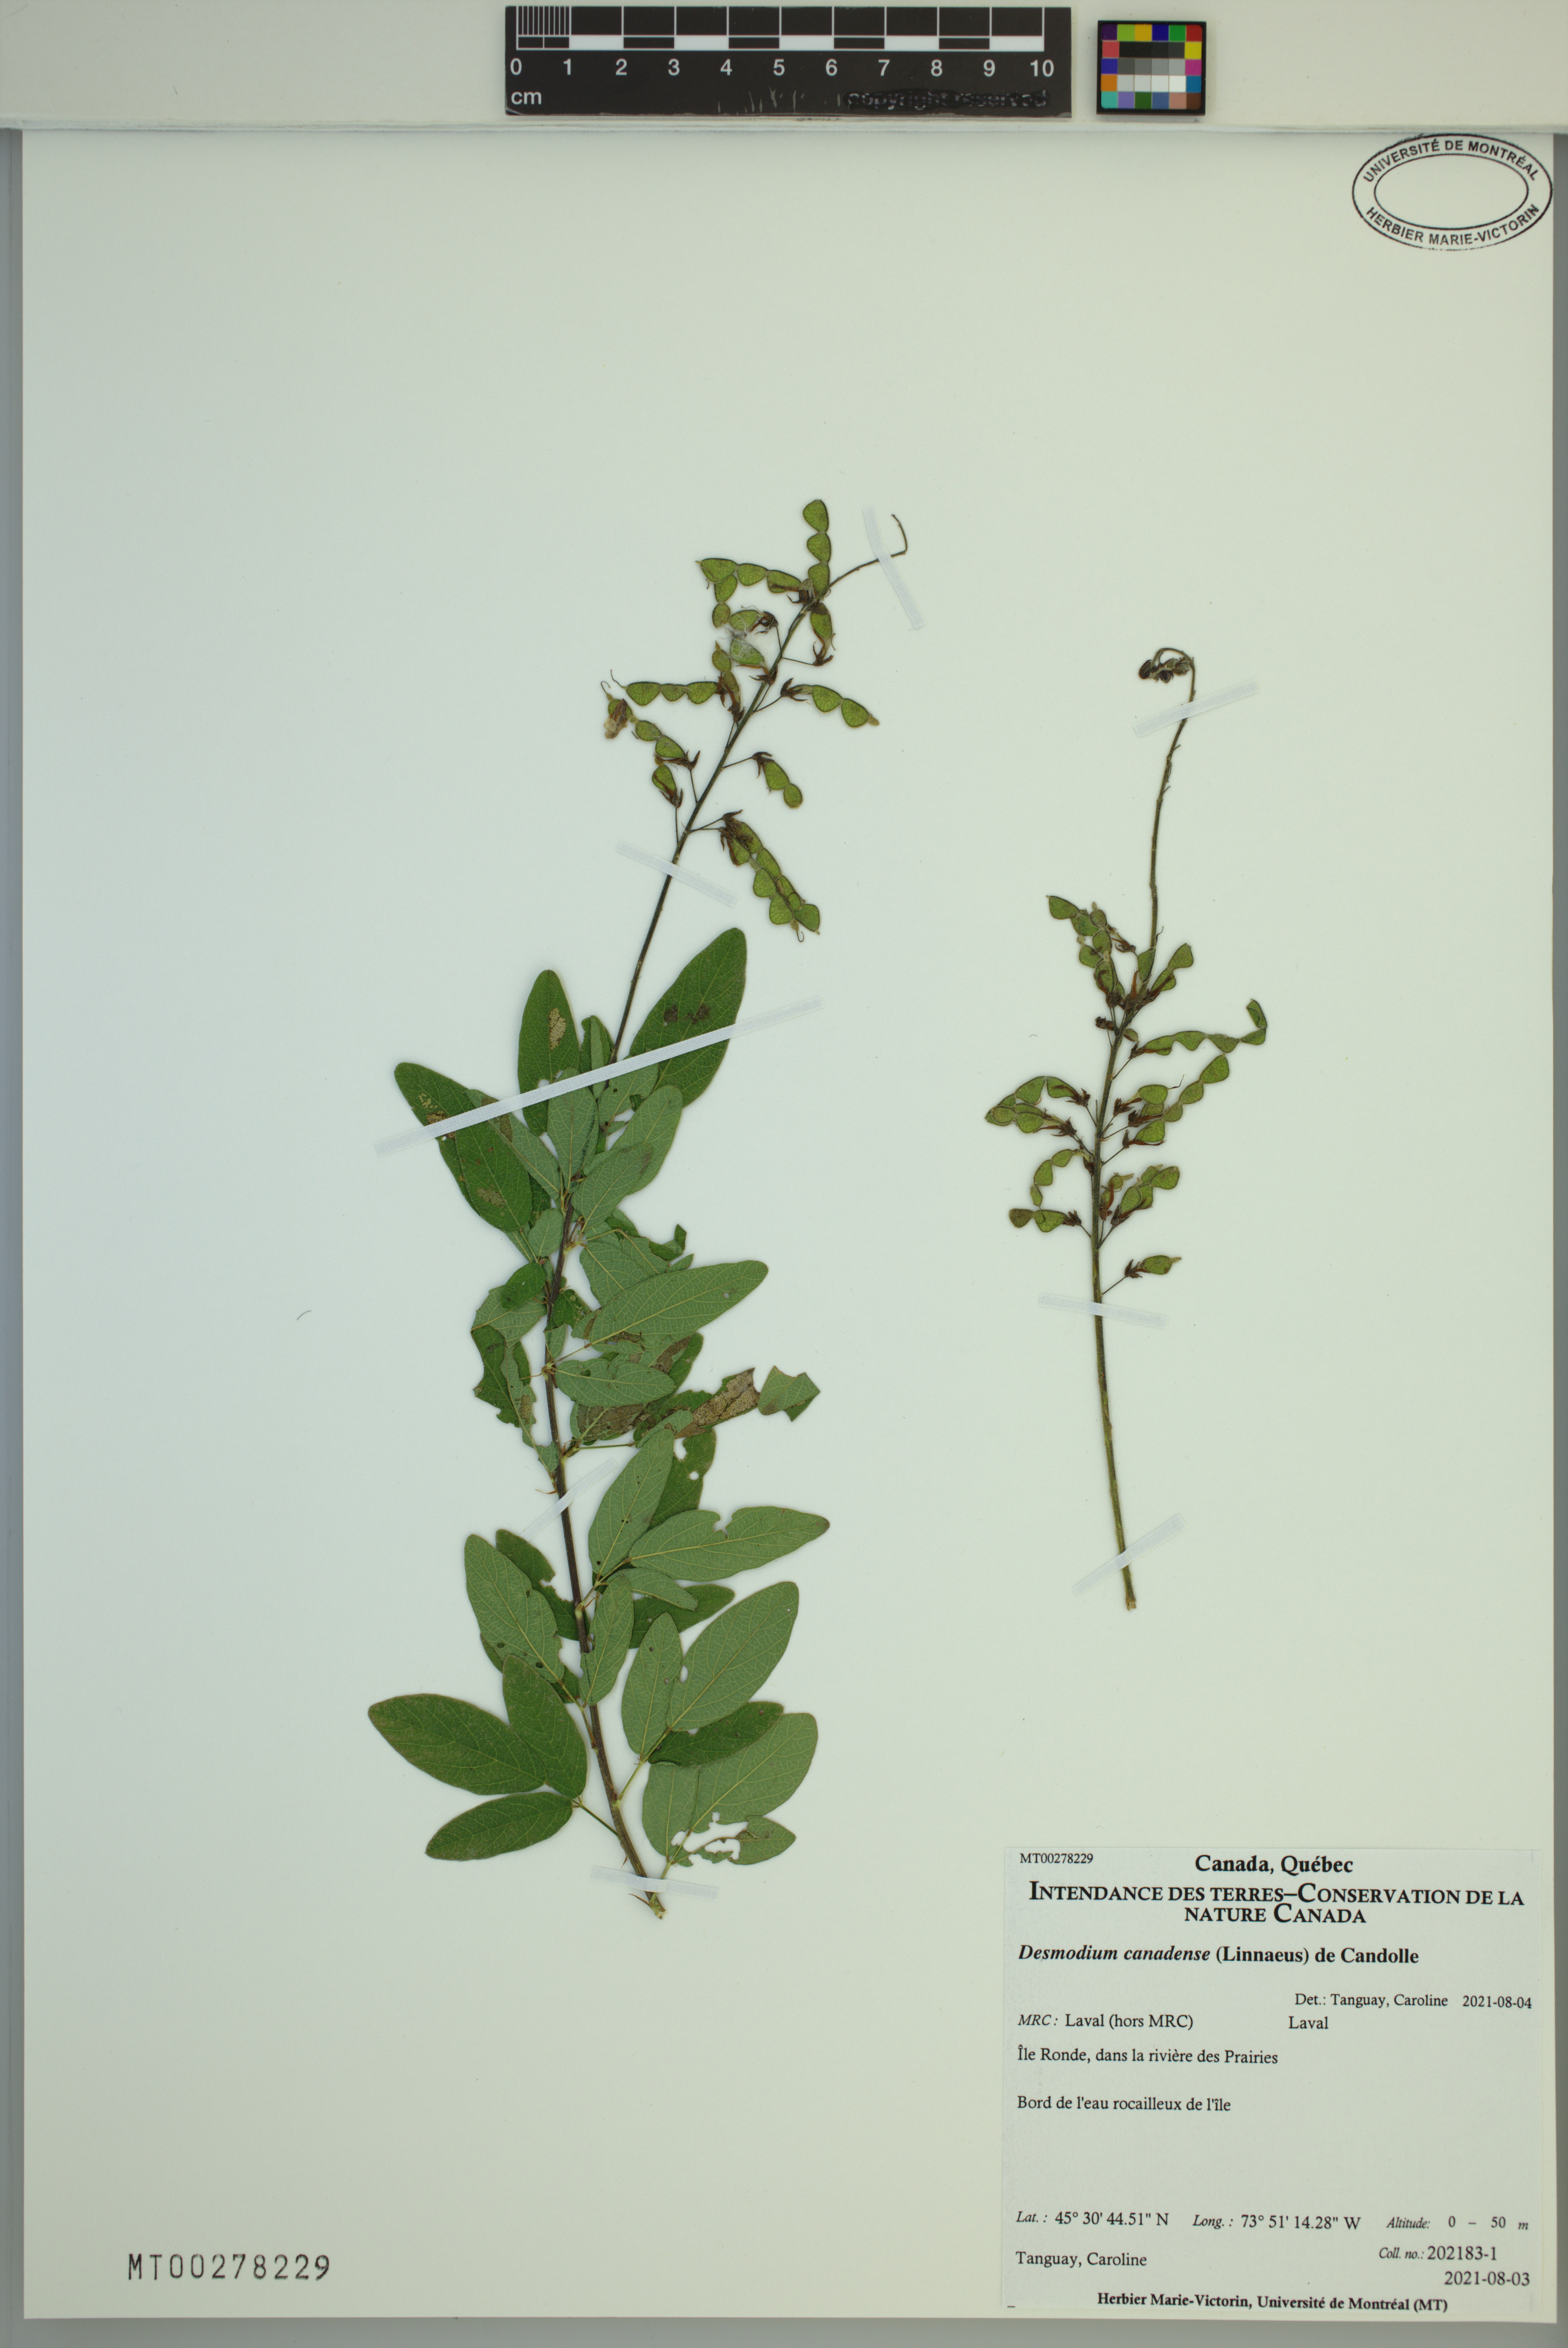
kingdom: Plantae
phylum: Tracheophyta
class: Magnoliopsida
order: Fabales
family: Fabaceae
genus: Desmodium
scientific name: Desmodium canadense
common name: Canada tick-trefoil
